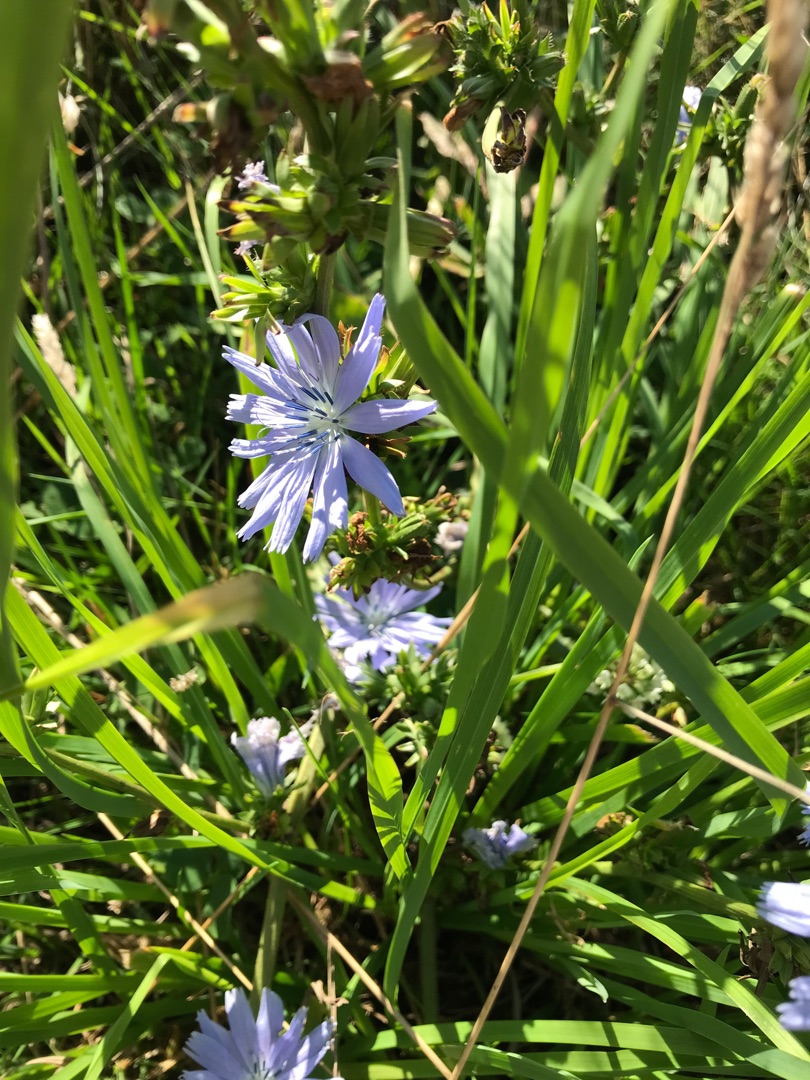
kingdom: Plantae
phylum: Tracheophyta
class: Magnoliopsida
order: Asterales
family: Asteraceae
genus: Cichorium
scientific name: Cichorium intybus
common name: Cikorie
